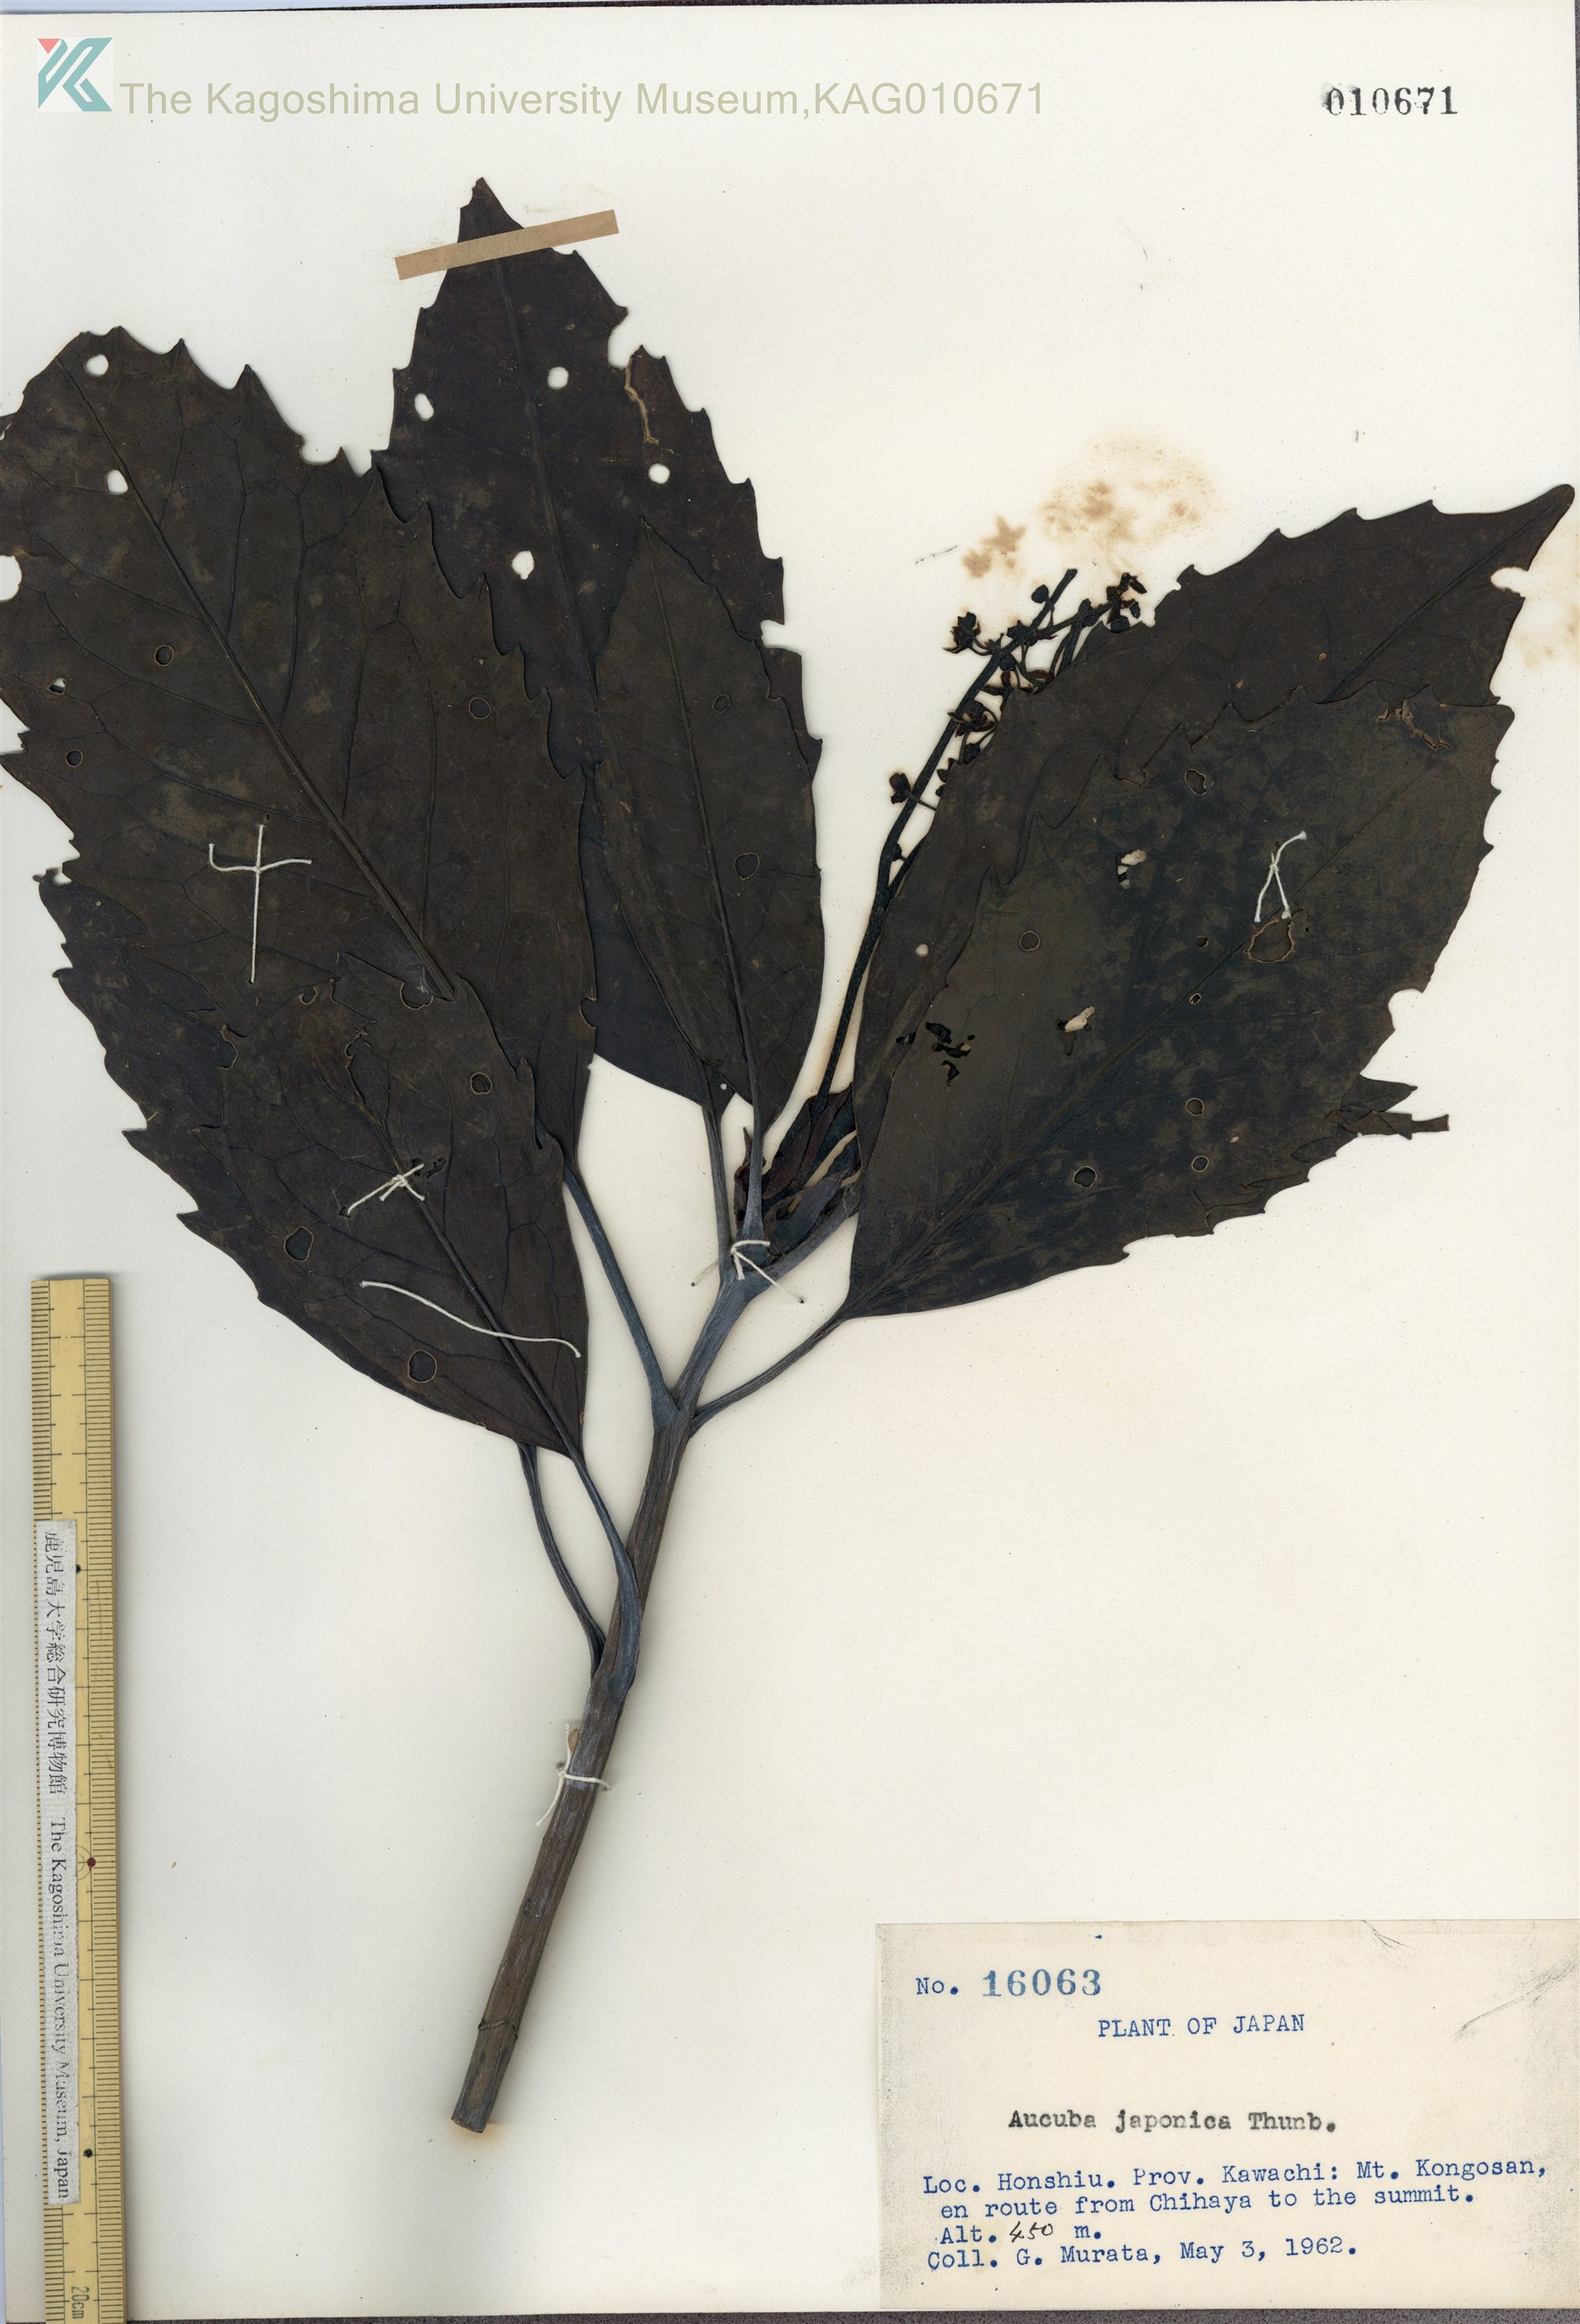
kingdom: Plantae
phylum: Tracheophyta
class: Magnoliopsida
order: Garryales
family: Garryaceae
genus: Aucuba
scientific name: Aucuba japonica
